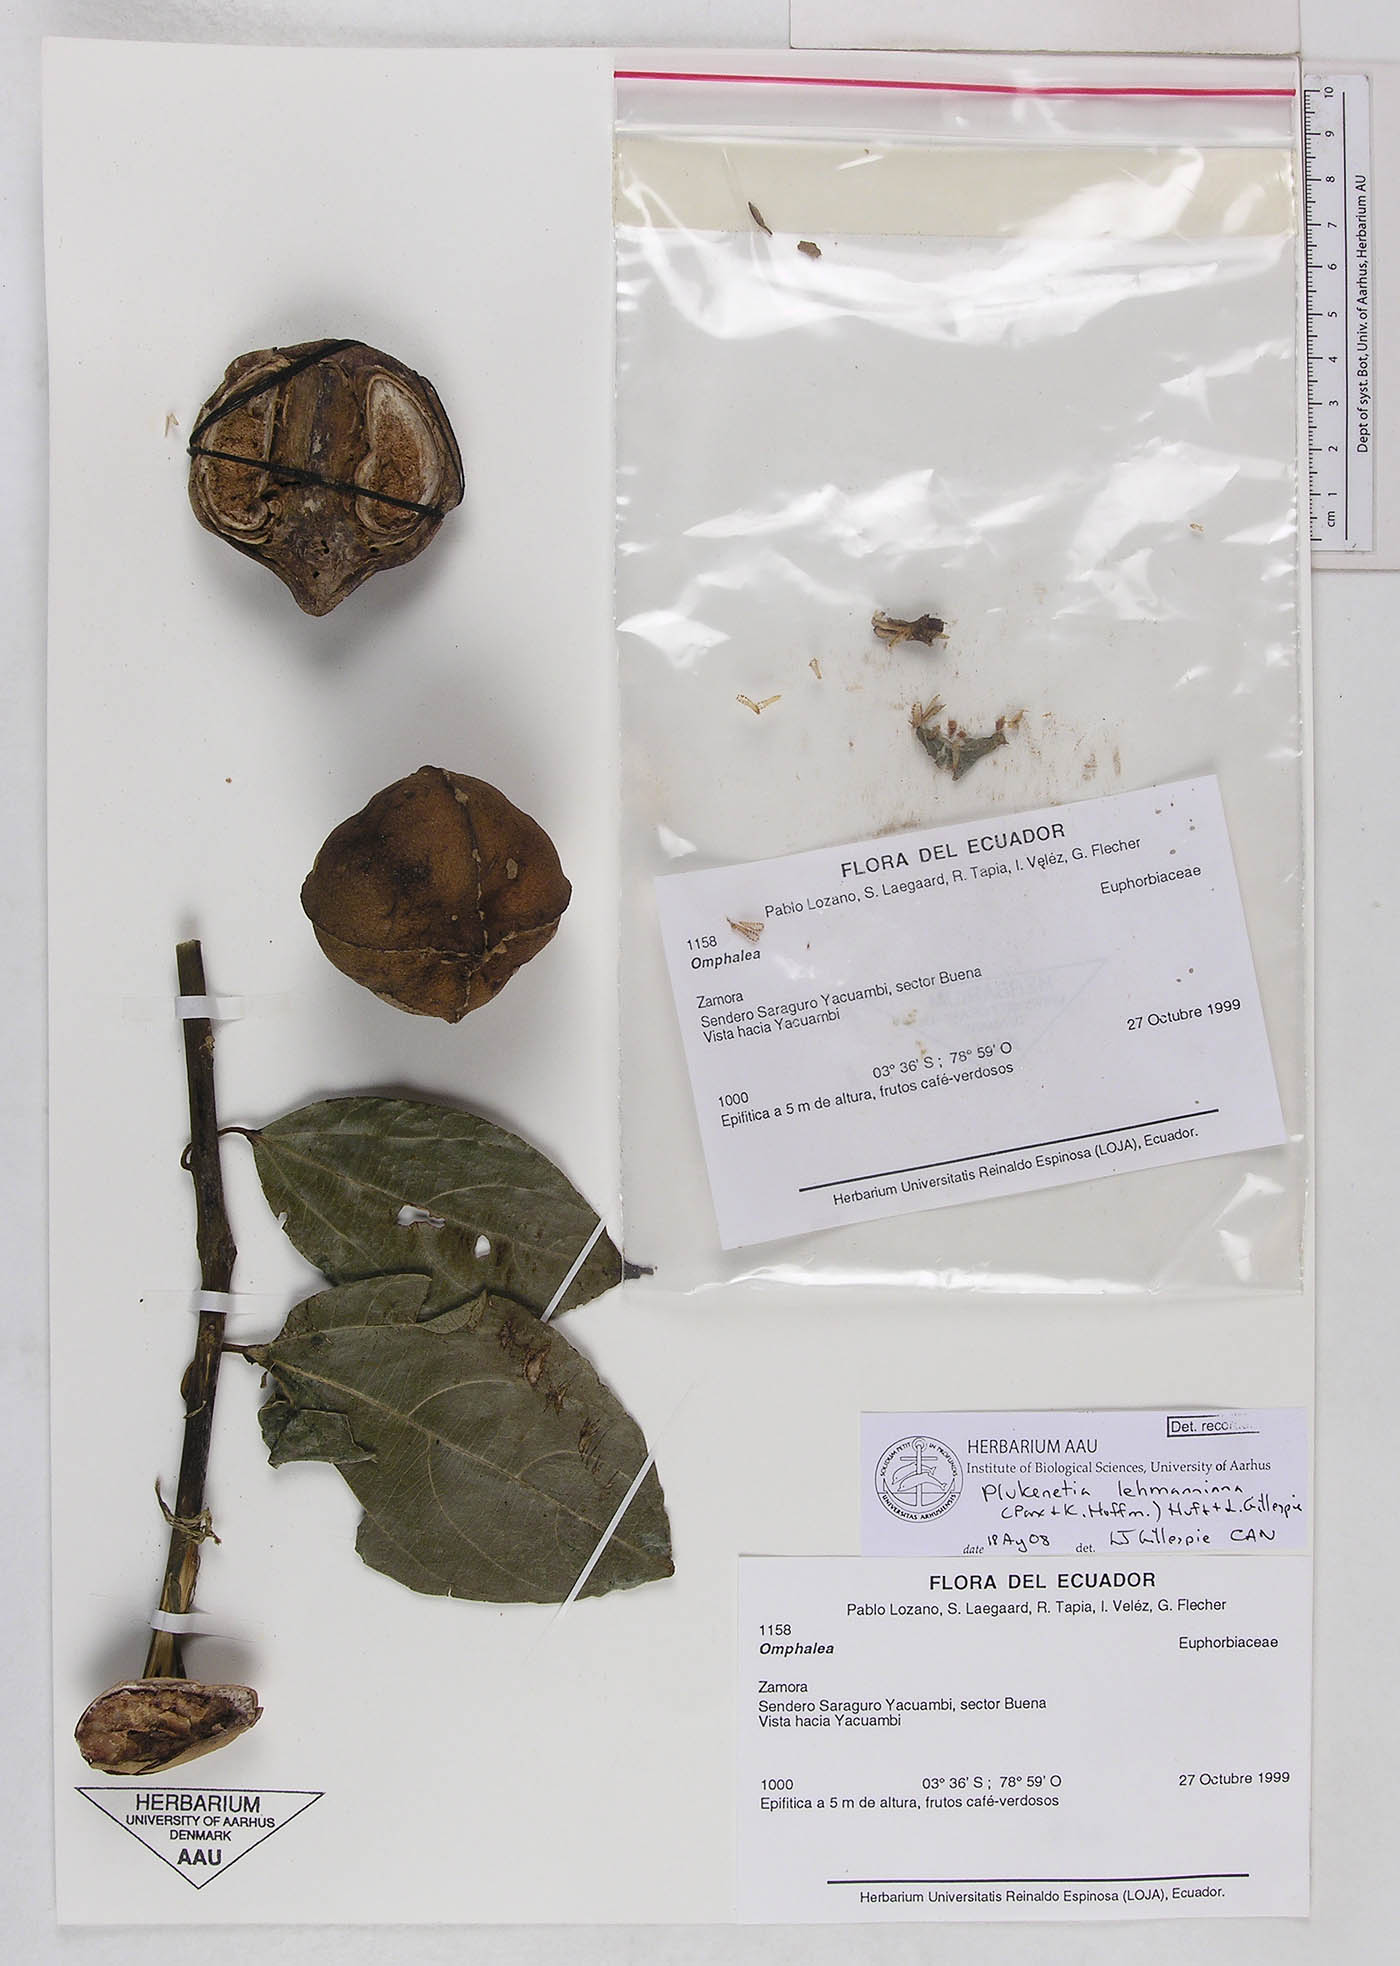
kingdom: Plantae
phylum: Tracheophyta
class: Magnoliopsida
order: Malpighiales
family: Euphorbiaceae
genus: Plukenetia
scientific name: Plukenetia lehmanniana
